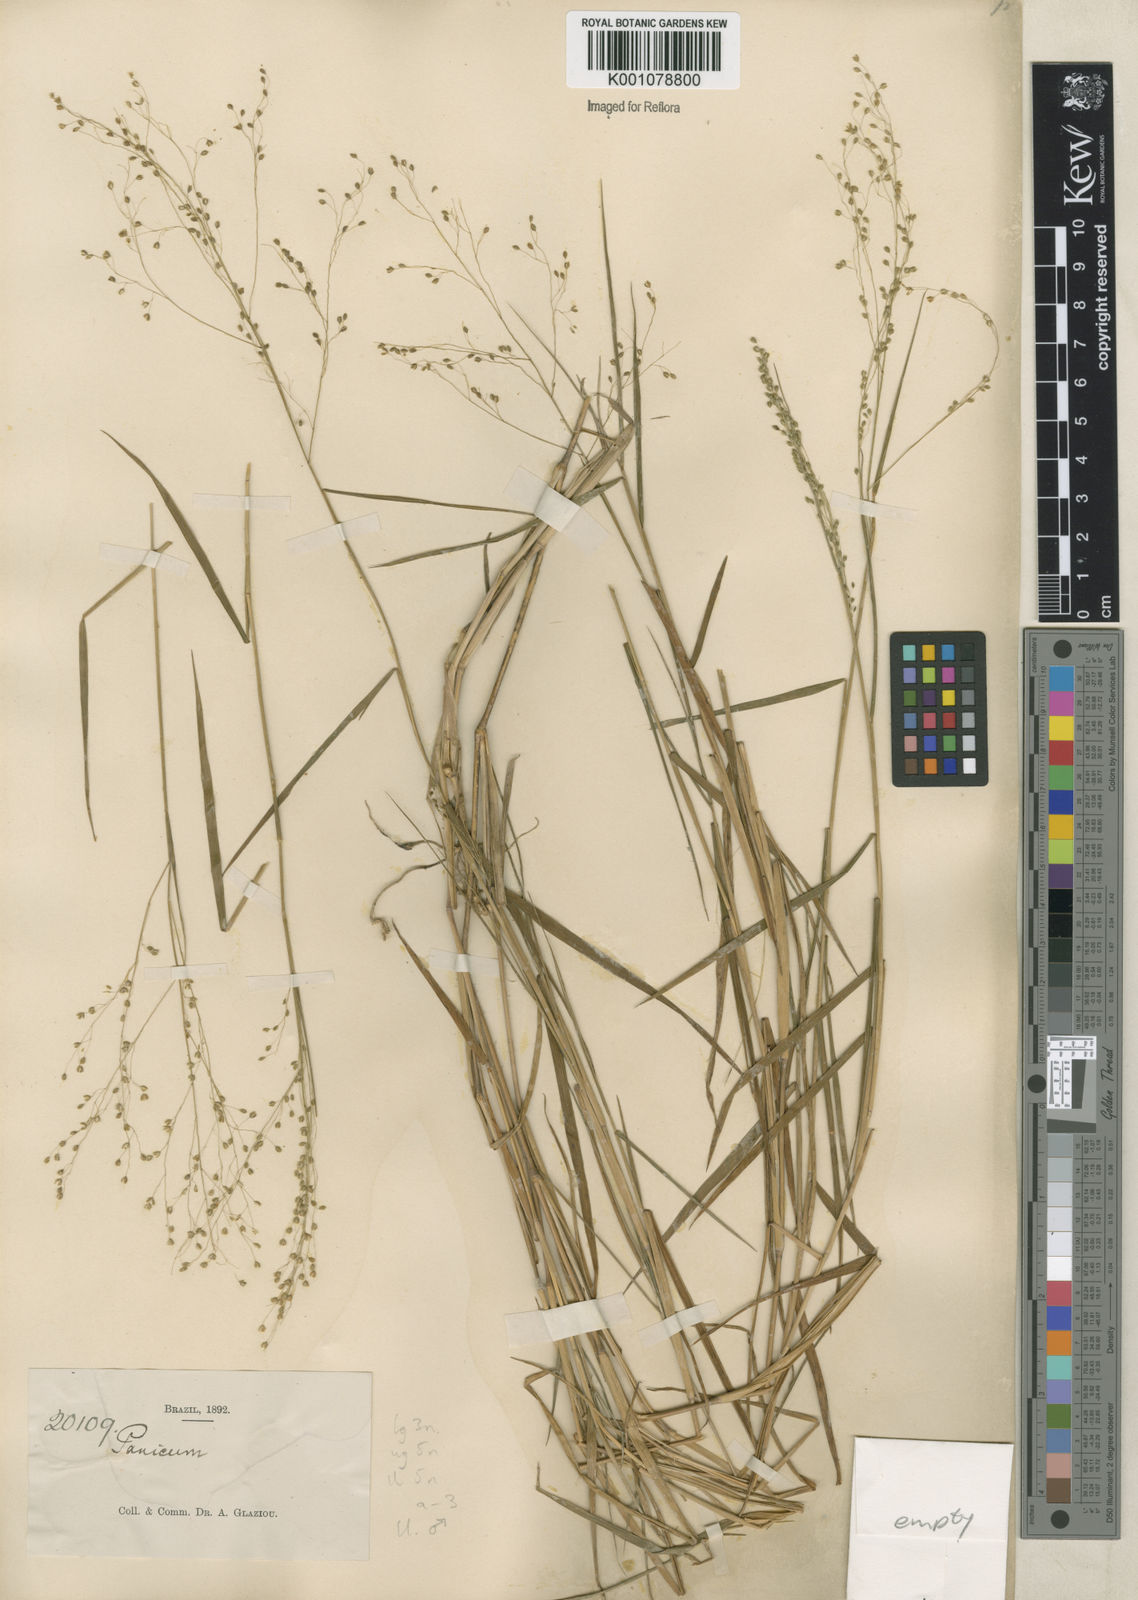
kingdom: Plantae
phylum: Tracheophyta
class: Liliopsida
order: Poales
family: Poaceae
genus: Trichanthecium
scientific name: Trichanthecium pseudisachne
